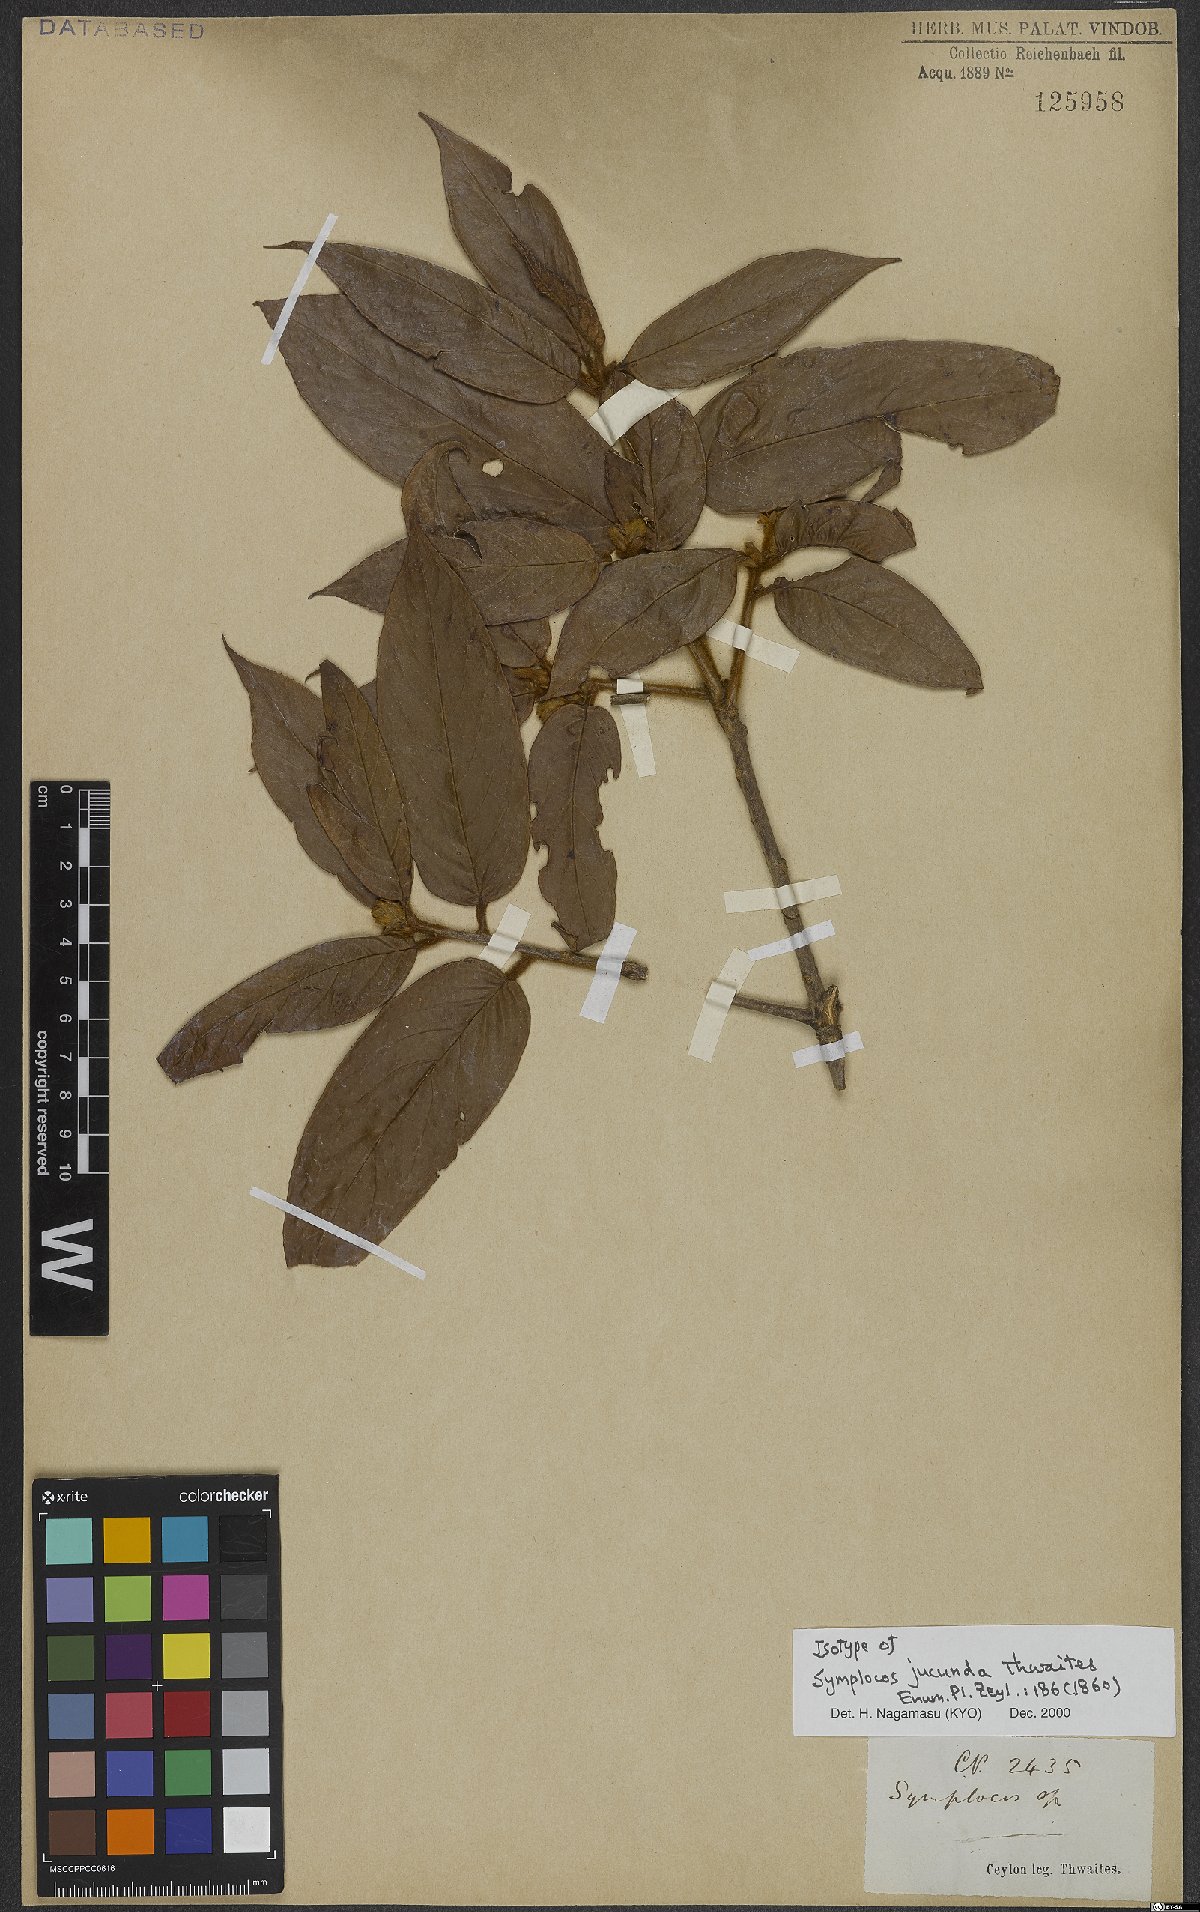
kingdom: Plantae
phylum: Tracheophyta
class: Magnoliopsida
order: Ericales
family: Symplocaceae
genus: Symplocos
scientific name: Symplocos macrophylla
